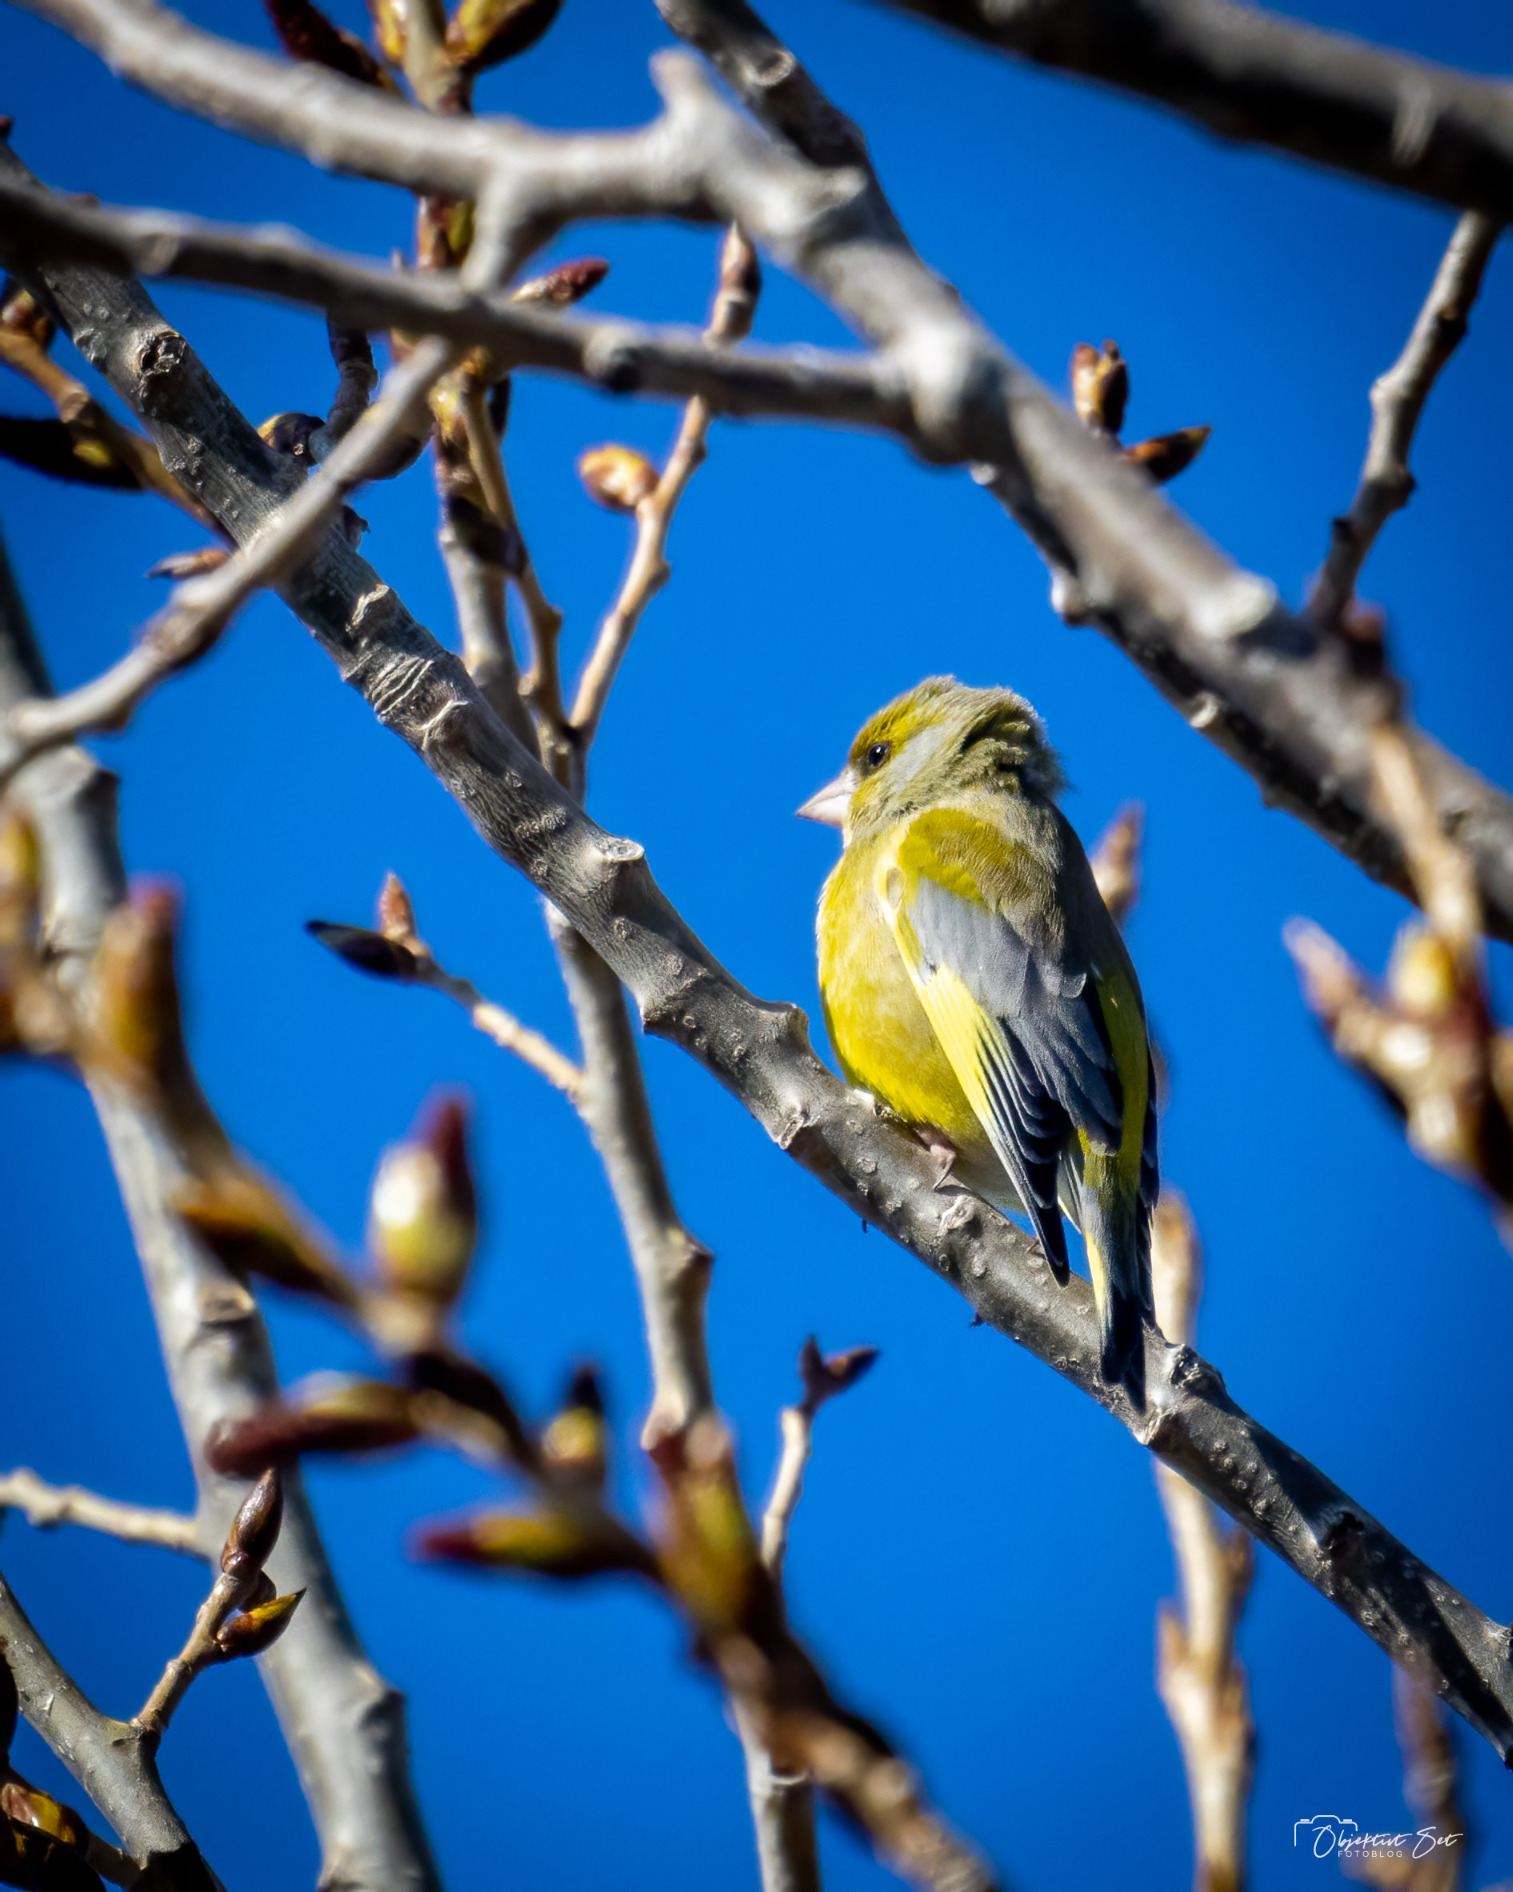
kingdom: Plantae
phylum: Tracheophyta
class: Liliopsida
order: Poales
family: Poaceae
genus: Chloris
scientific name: Chloris chloris
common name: Grønirisk
